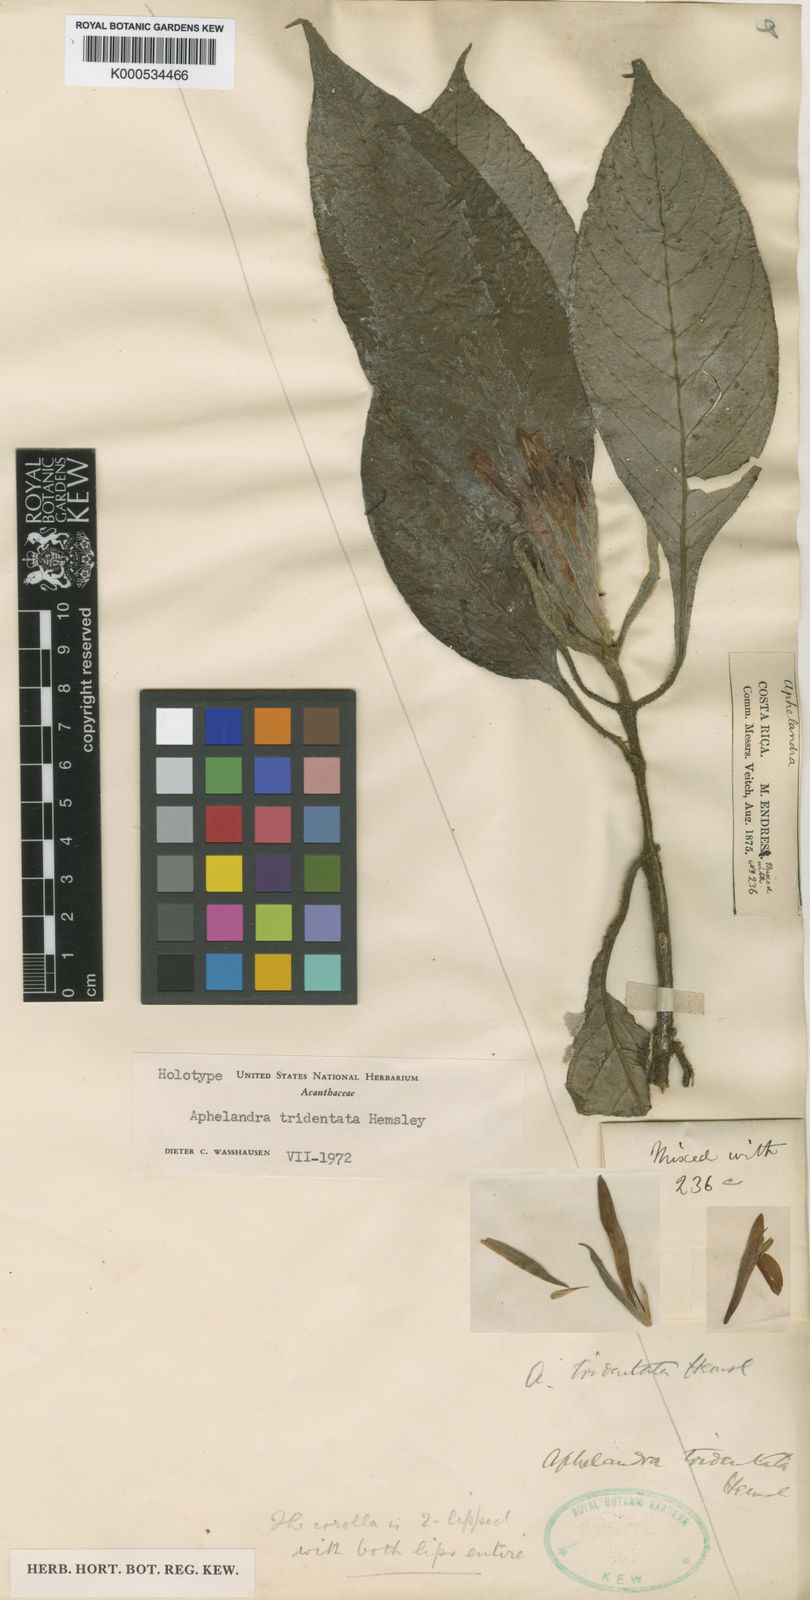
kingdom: Plantae
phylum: Tracheophyta
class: Magnoliopsida
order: Lamiales
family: Acanthaceae
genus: Aphelandra
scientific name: Aphelandra tridentata
